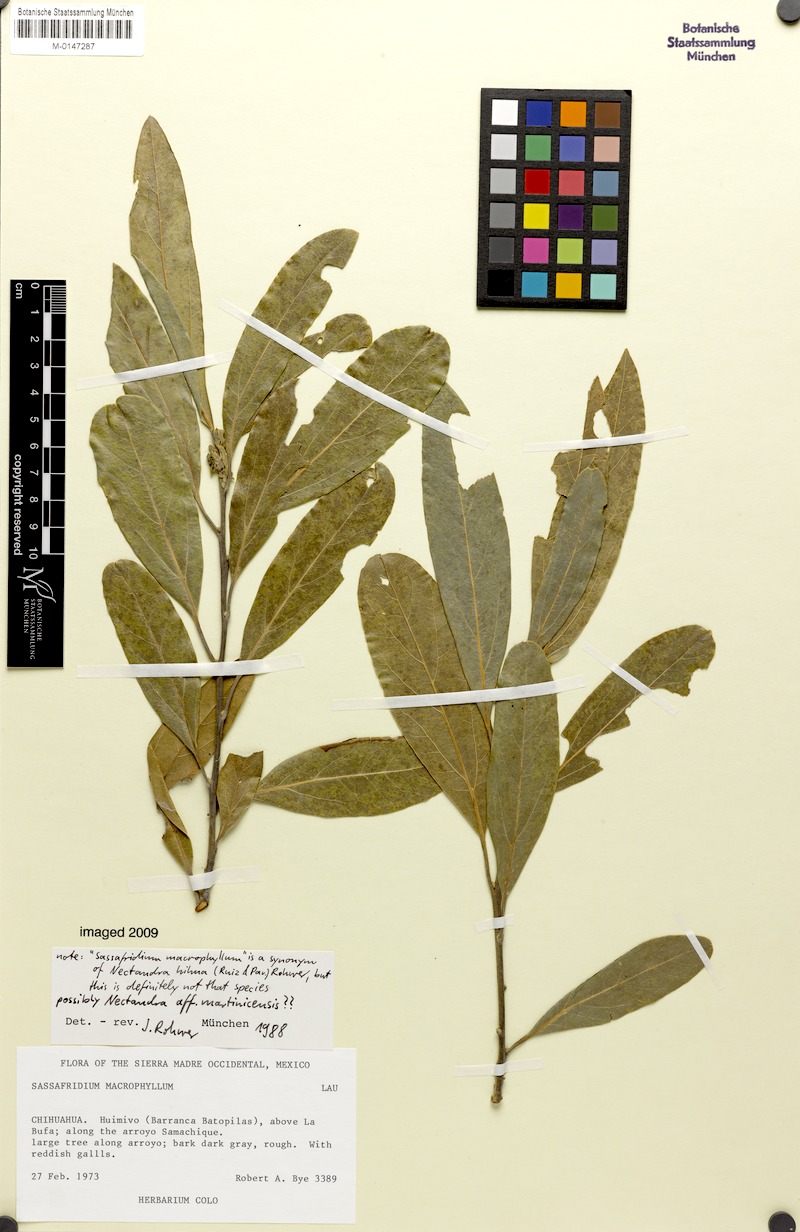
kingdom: Plantae
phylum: Tracheophyta
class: Magnoliopsida
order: Laurales
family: Lauraceae
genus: Damburneya
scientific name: Damburneya martinicensis
